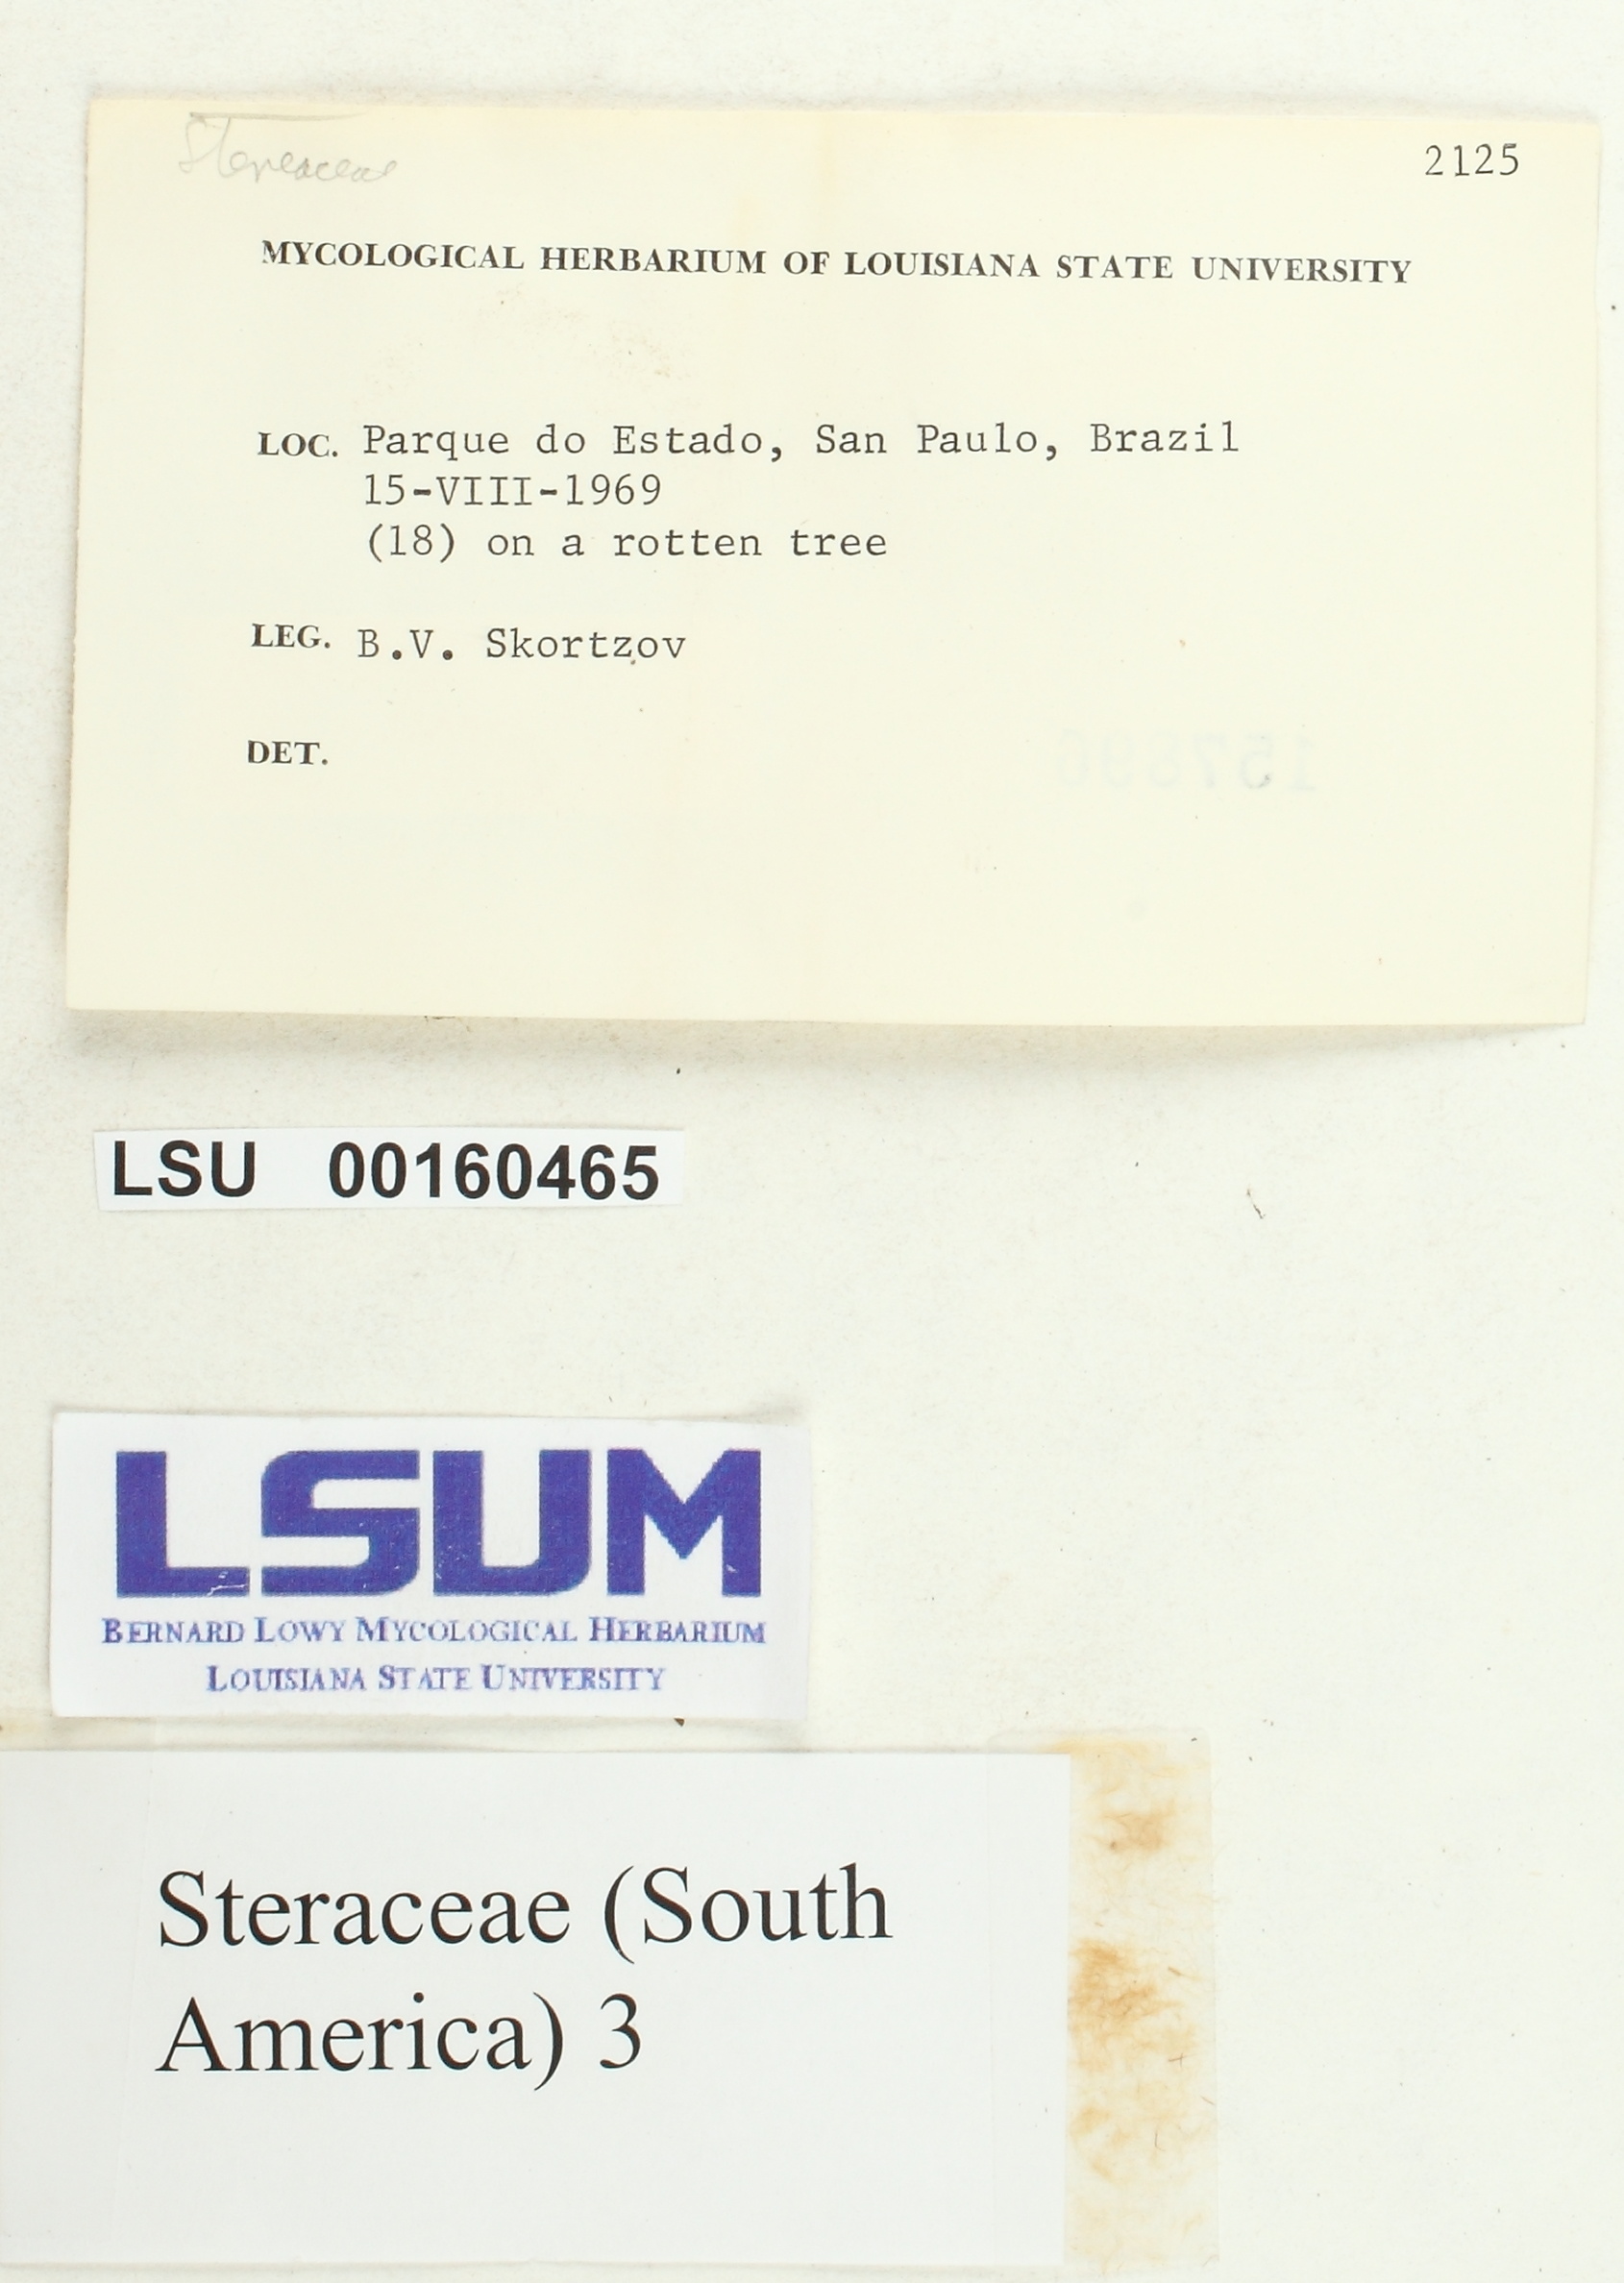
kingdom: Fungi
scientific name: Fungi
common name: Fungi
